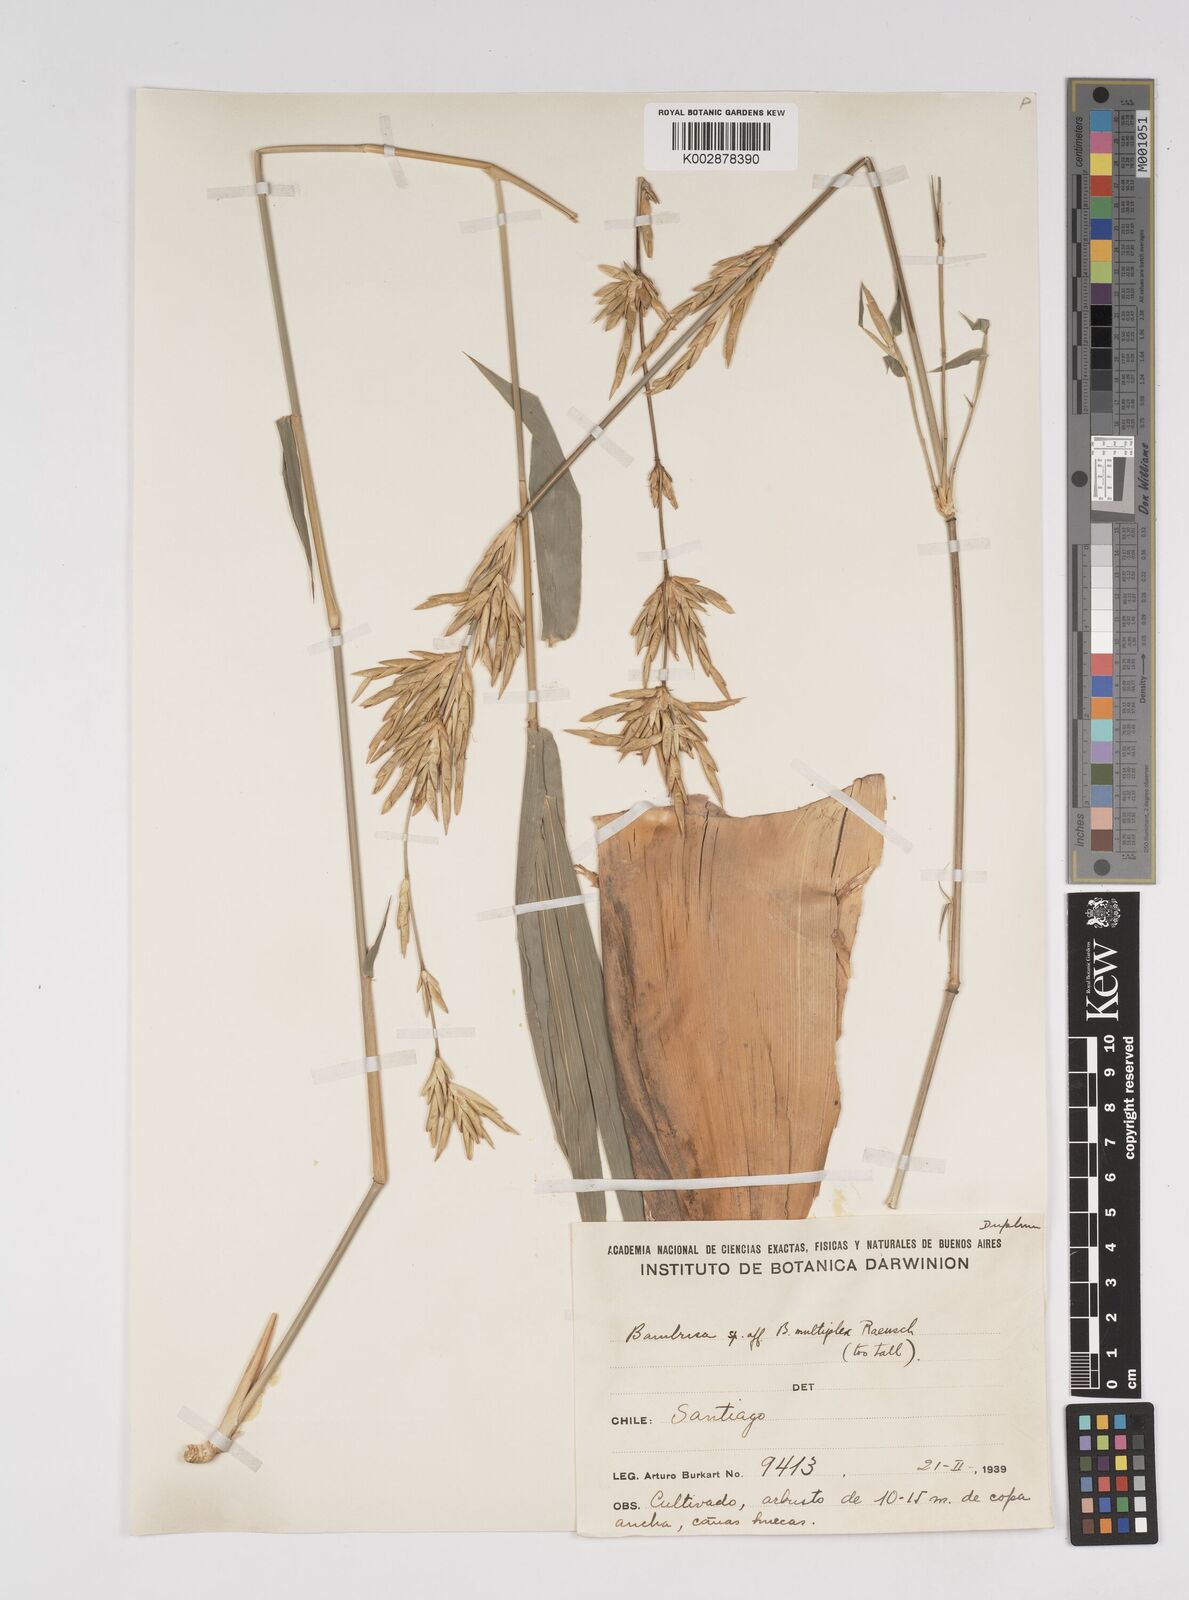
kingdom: Plantae
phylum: Tracheophyta
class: Liliopsida
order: Poales
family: Poaceae
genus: Bambusa
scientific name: Bambusa
